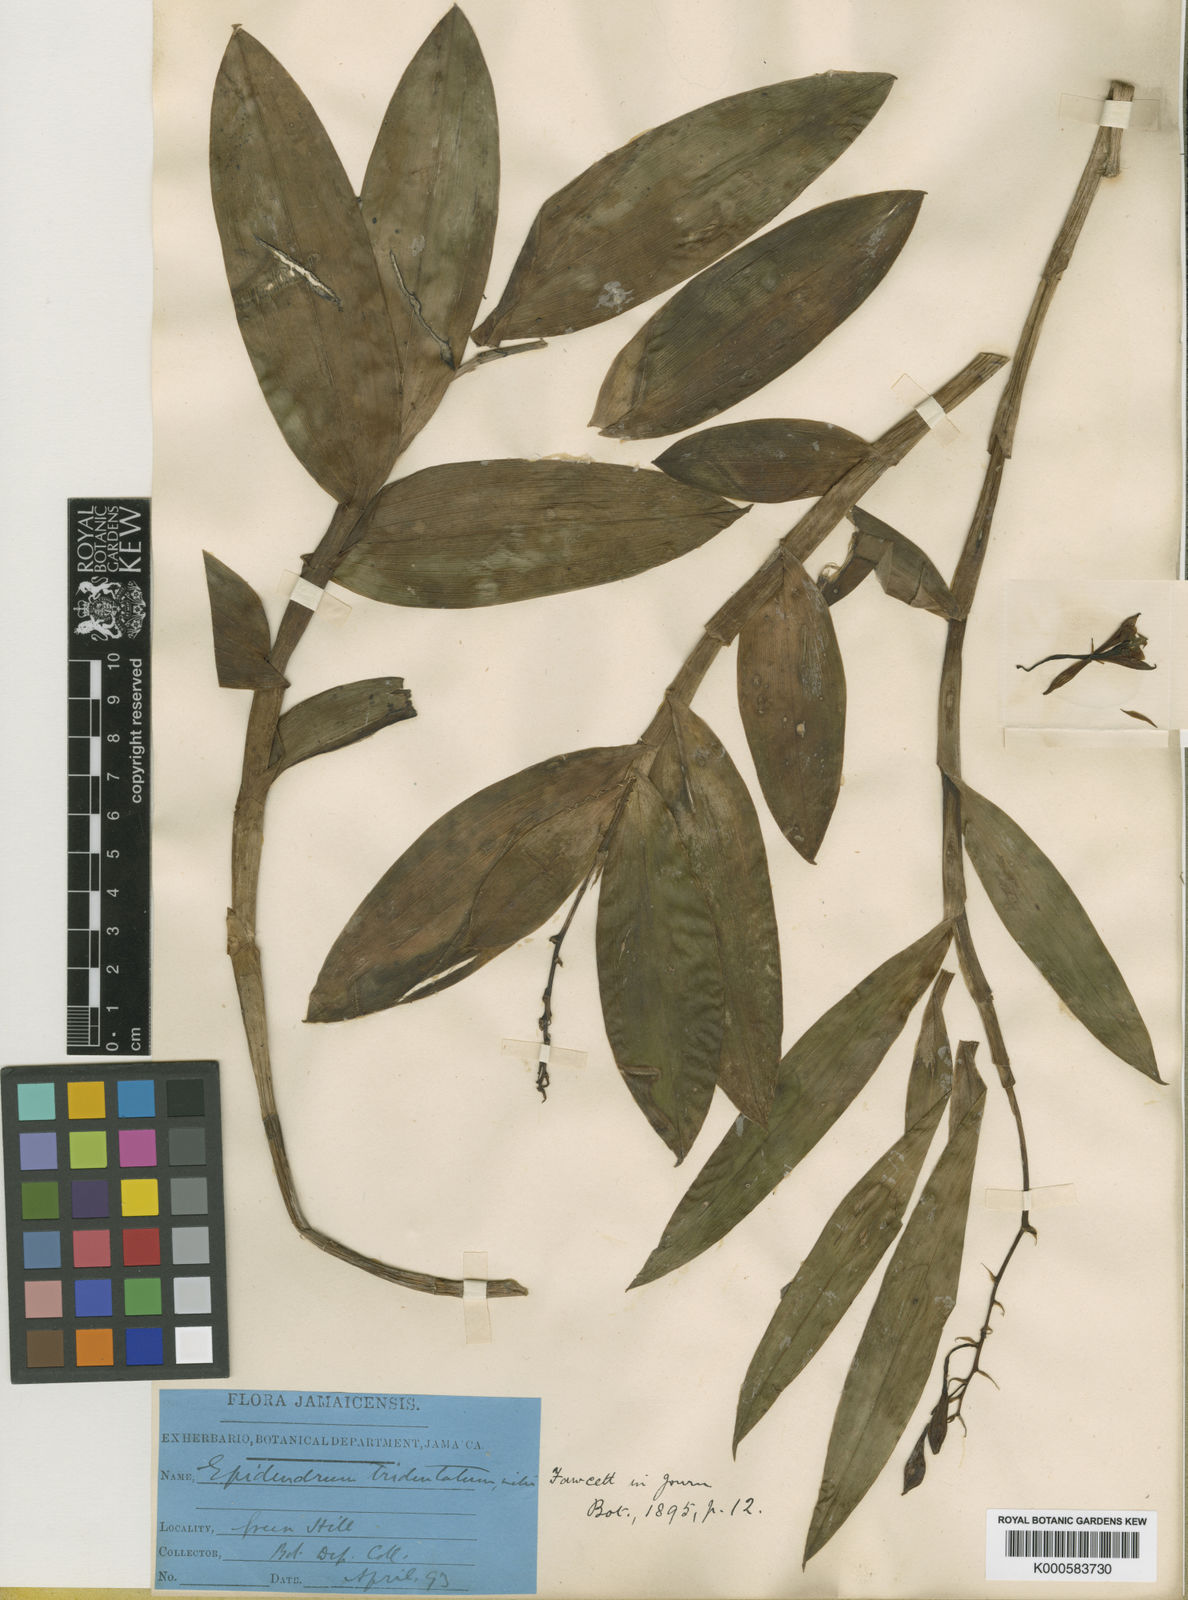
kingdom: Plantae
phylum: Tracheophyta
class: Liliopsida
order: Asparagales
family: Orchidaceae
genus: Lepanthes
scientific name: Lepanthes tridentata
